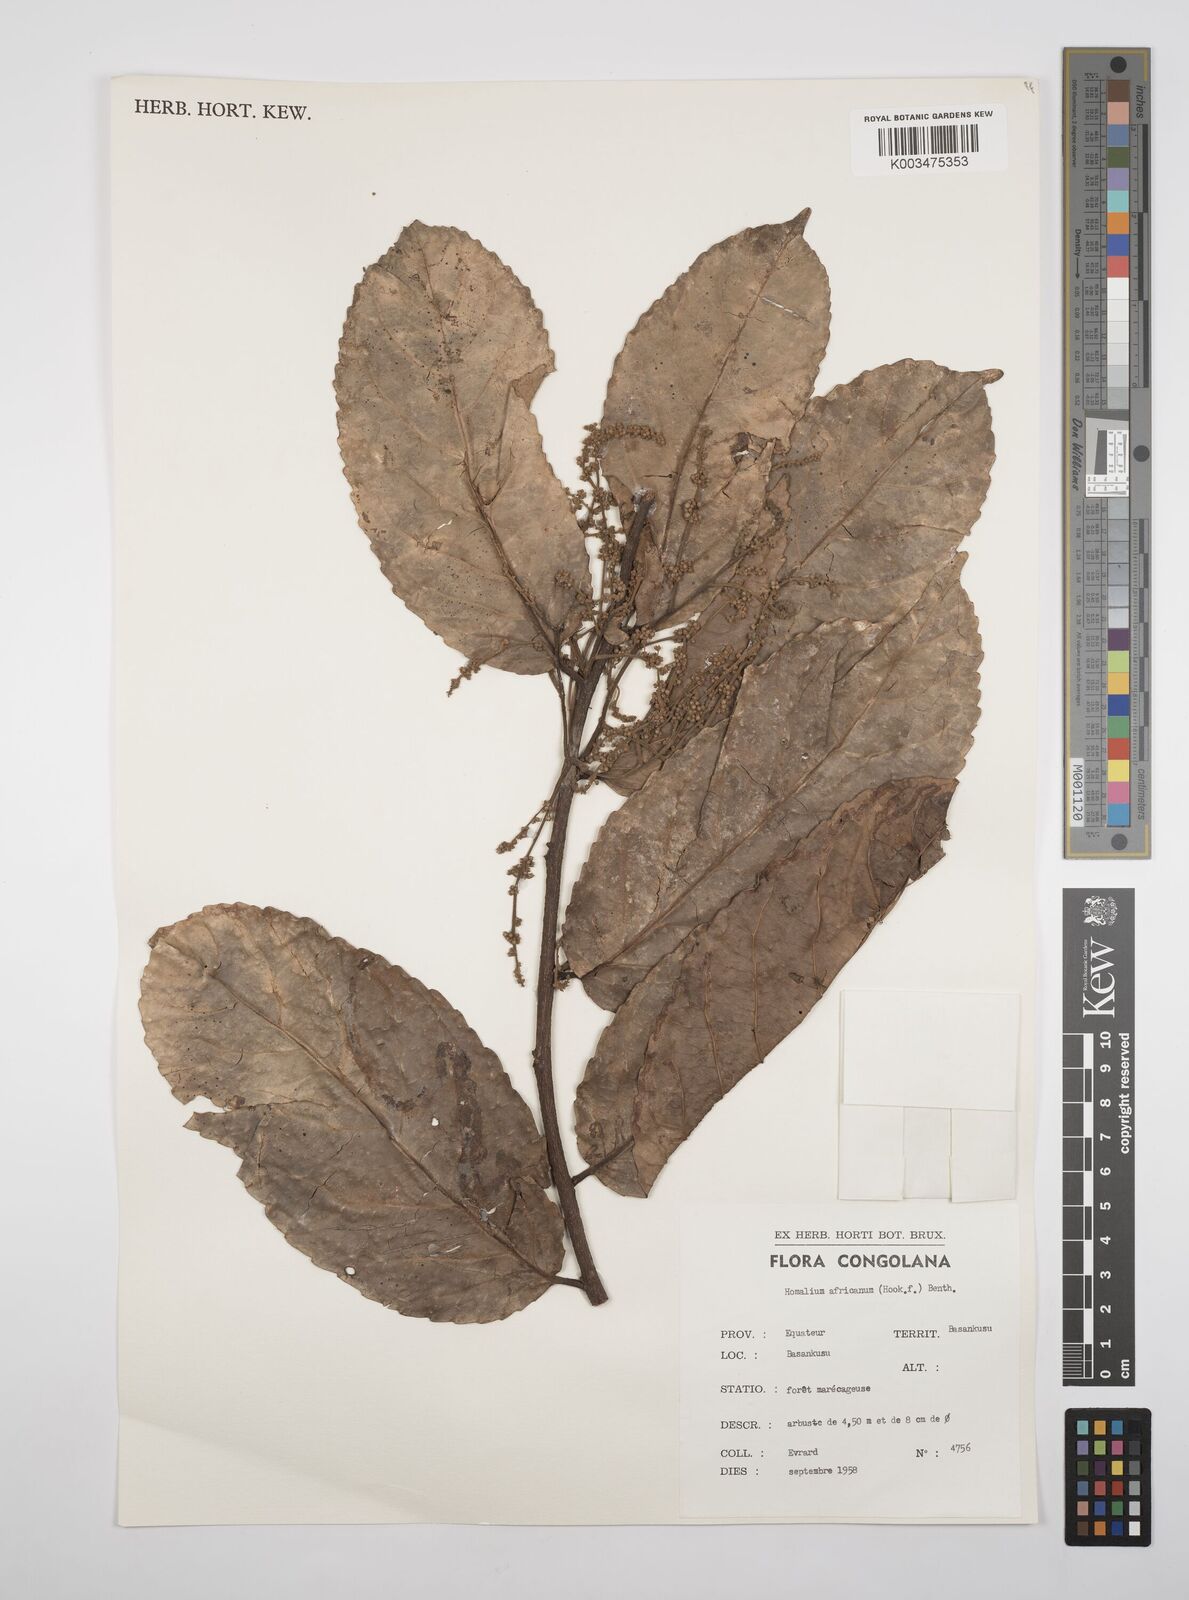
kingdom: Plantae
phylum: Tracheophyta
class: Magnoliopsida
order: Malpighiales
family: Salicaceae
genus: Homalium
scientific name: Homalium africanum
